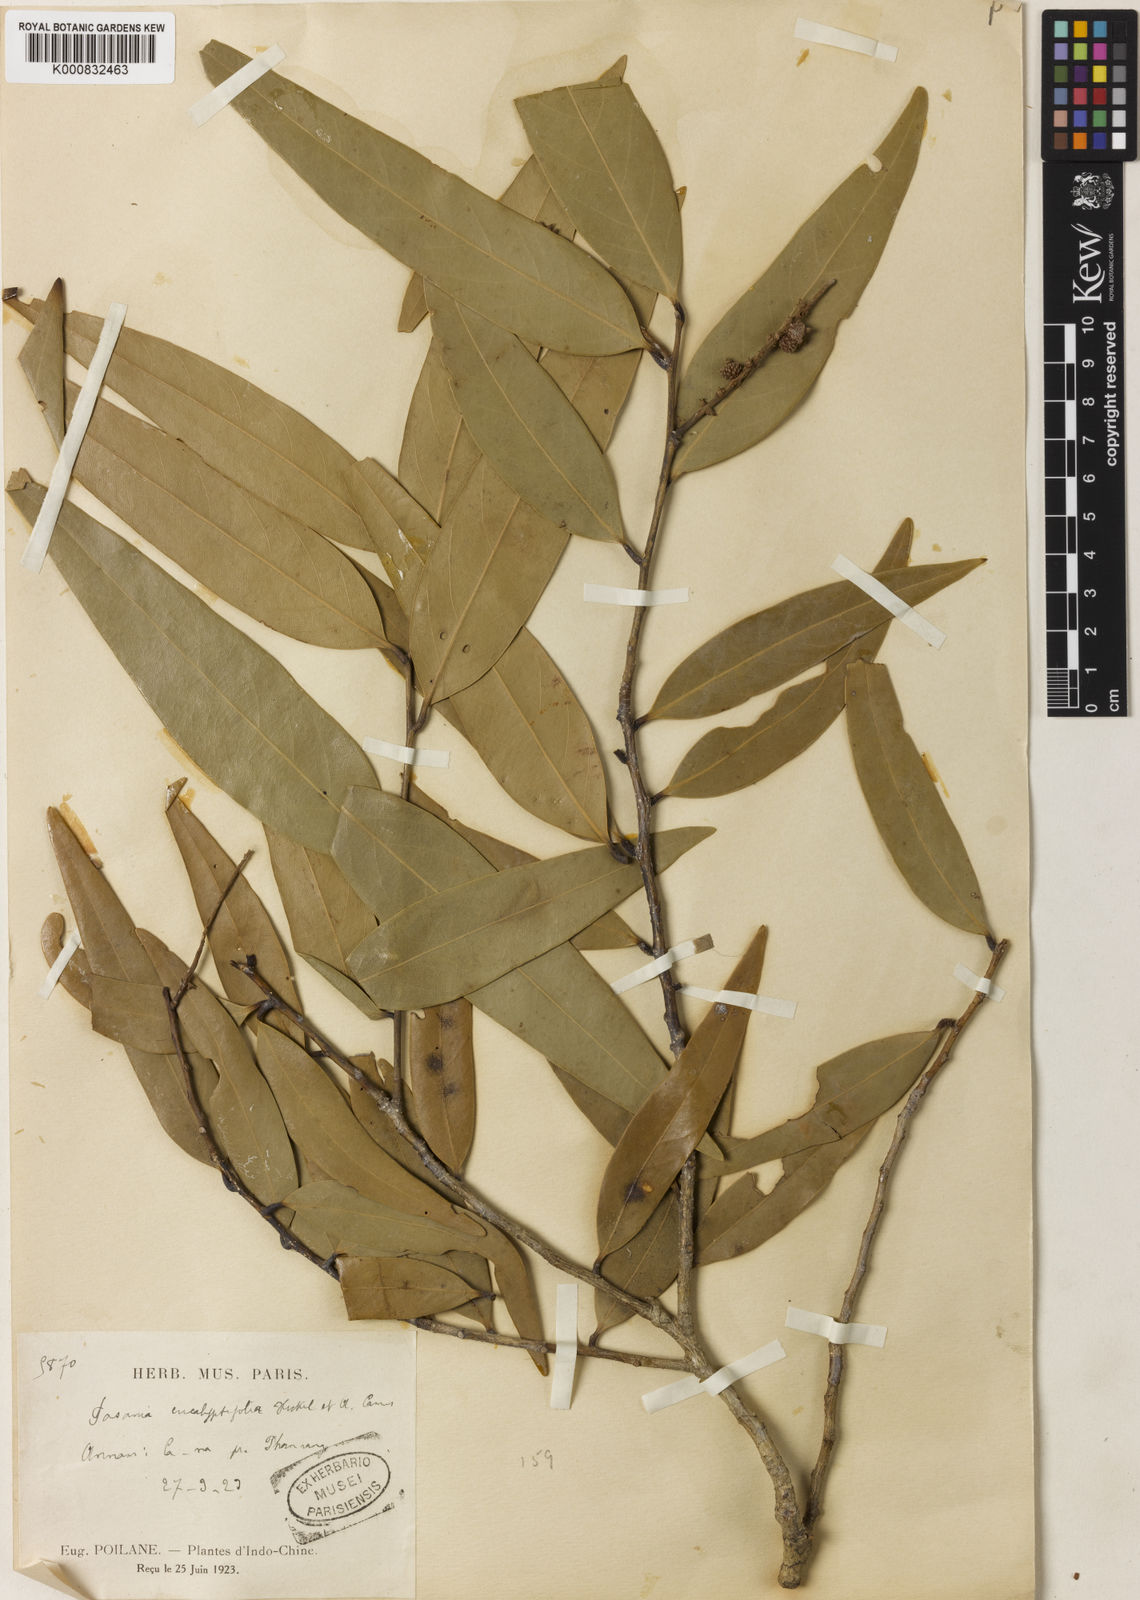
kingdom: Plantae
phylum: Tracheophyta
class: Magnoliopsida
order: Fagales
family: Fagaceae
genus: Lithocarpus
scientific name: Lithocarpus eucalyptifolius
